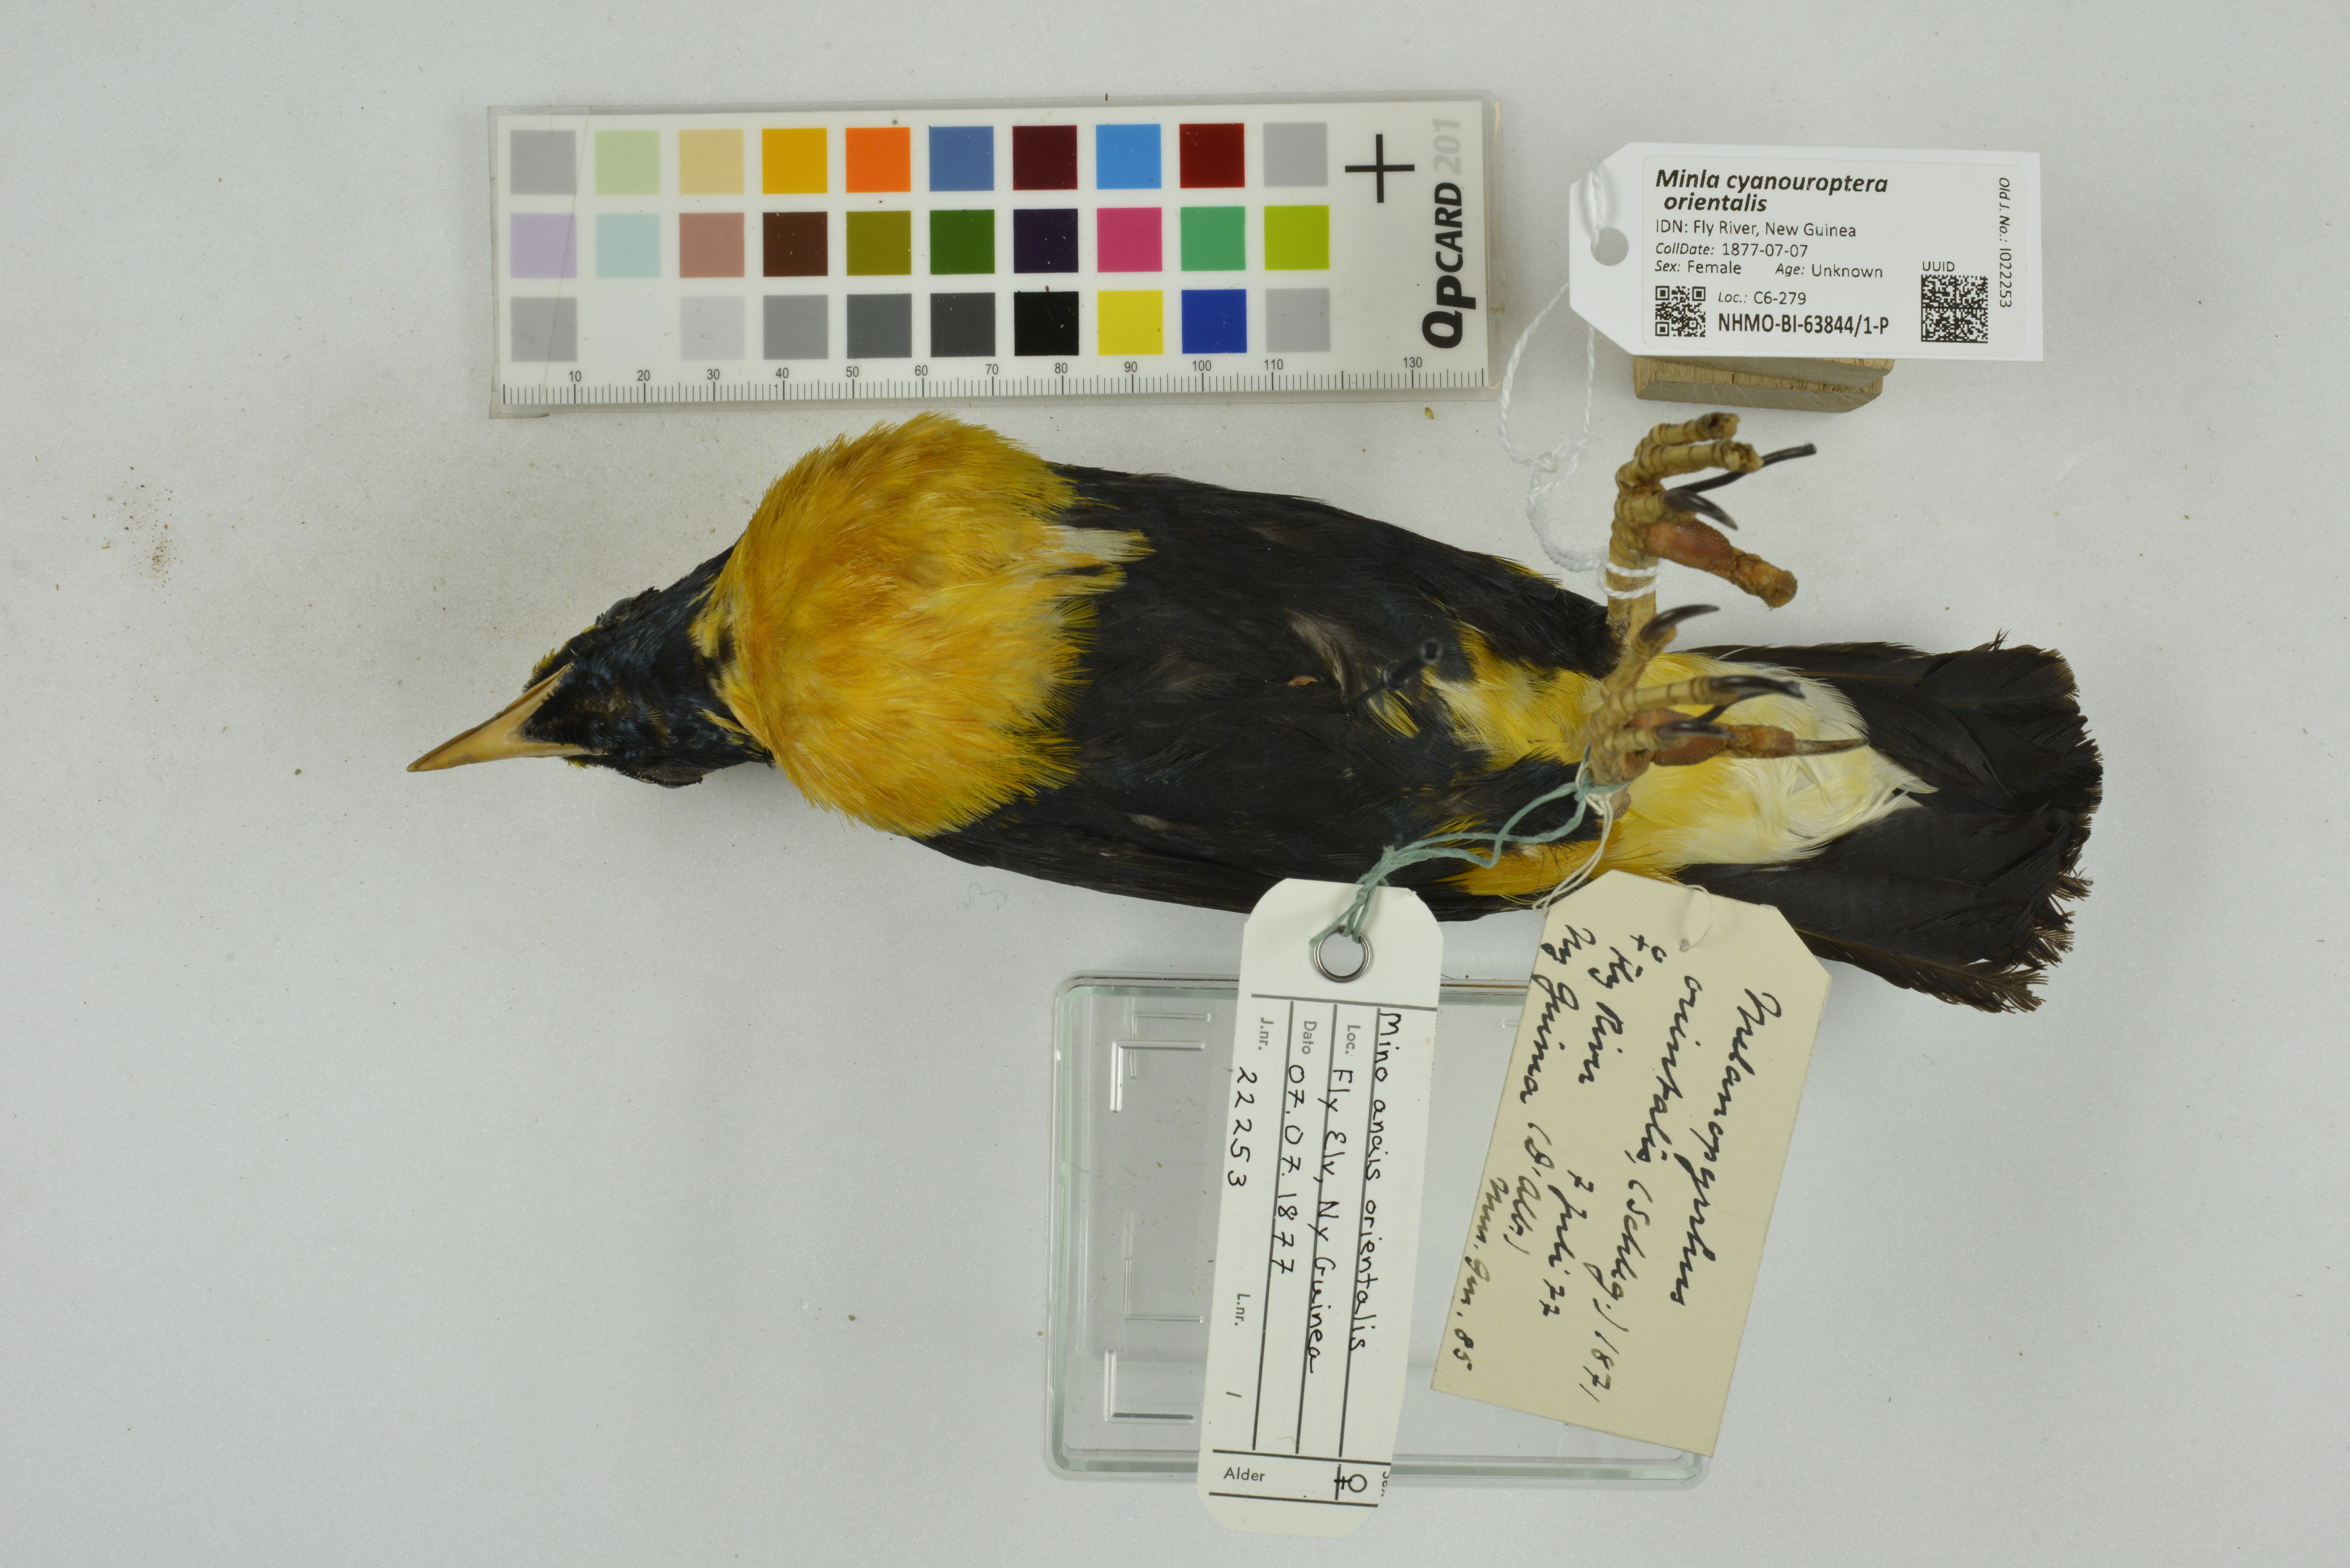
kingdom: Animalia
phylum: Chordata
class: Aves
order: Passeriformes
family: Leiothrichidae
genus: Minla
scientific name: Minla cyanouroptera
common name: Blue-winged minla
